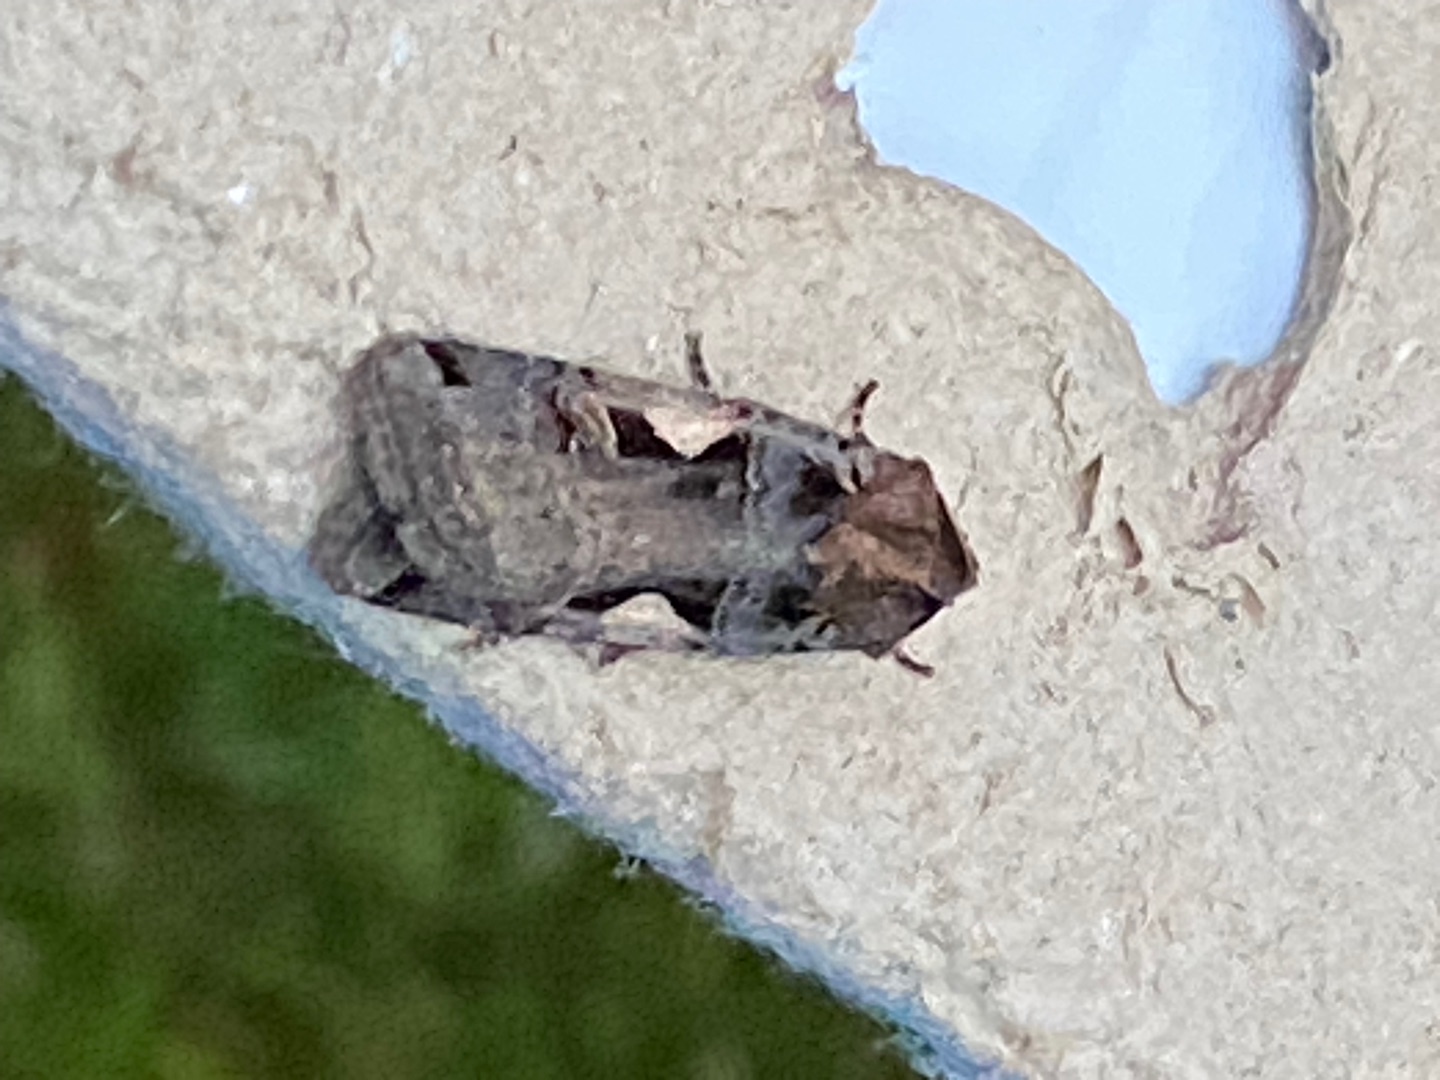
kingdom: Animalia
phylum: Arthropoda
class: Insecta
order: Lepidoptera
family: Noctuidae
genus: Xestia
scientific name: Xestia c-nigrum
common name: Det sorte c
